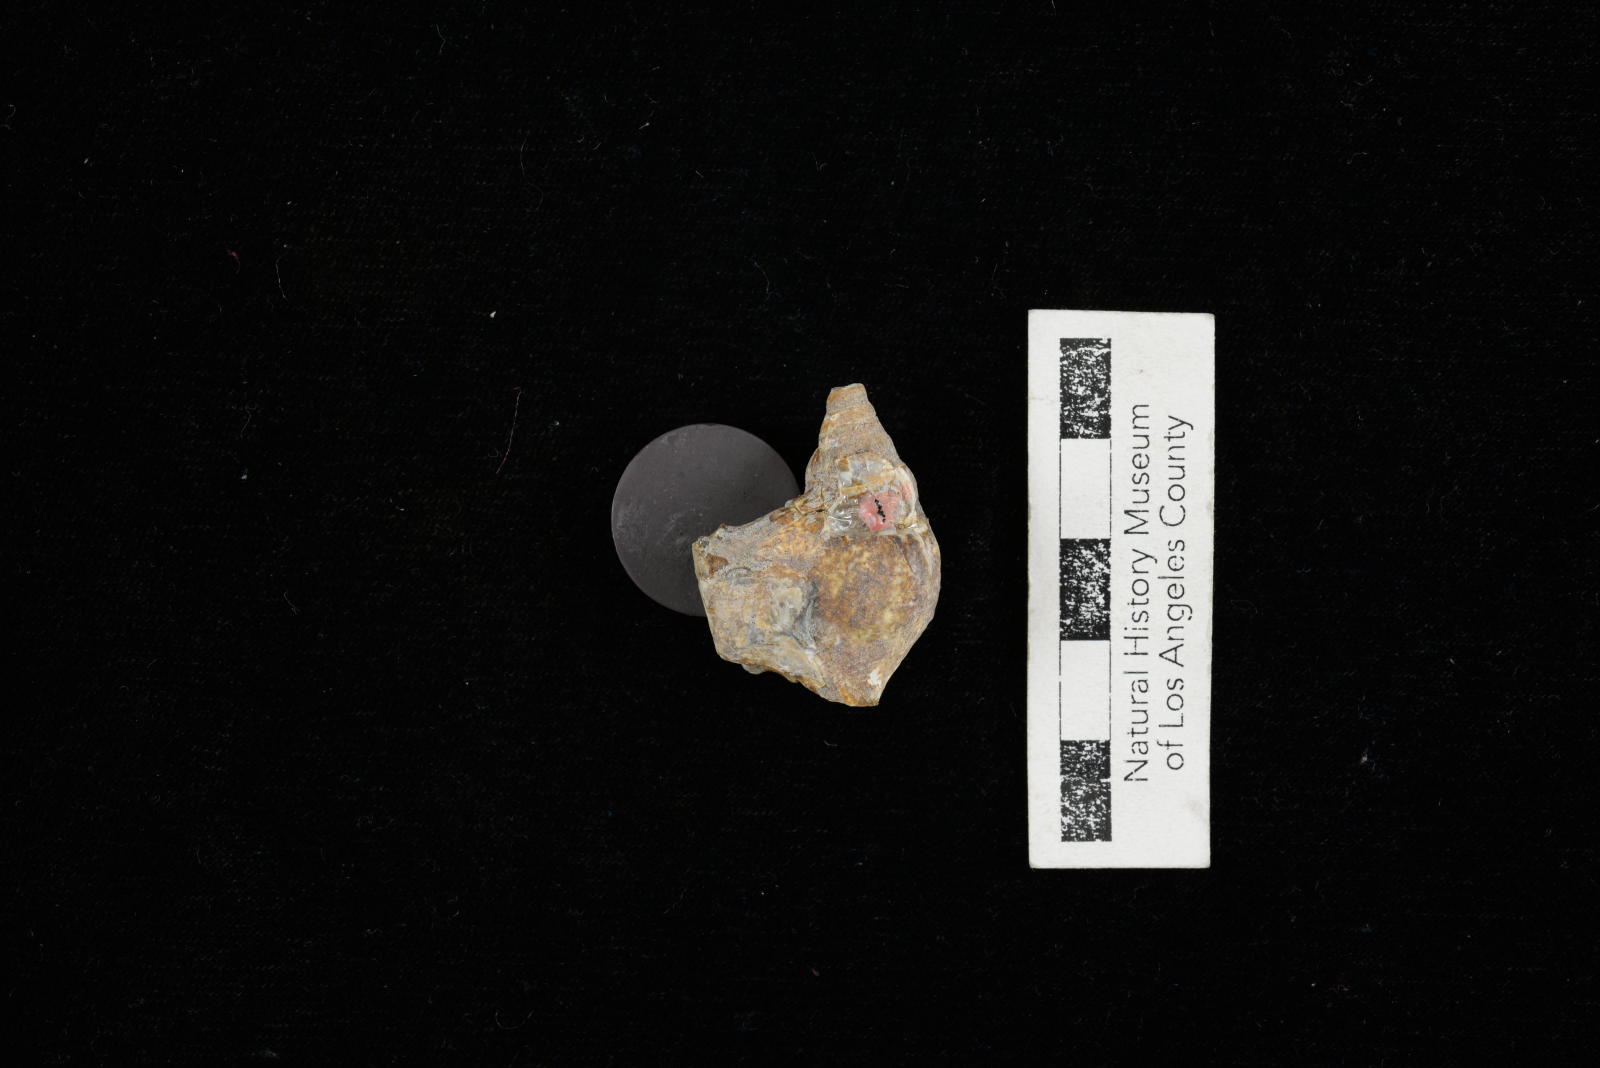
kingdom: Animalia
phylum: Mollusca
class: Gastropoda
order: Littorinimorpha
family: Aporrhaidae
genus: Latiala
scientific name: Latiala Alaria nodosa
